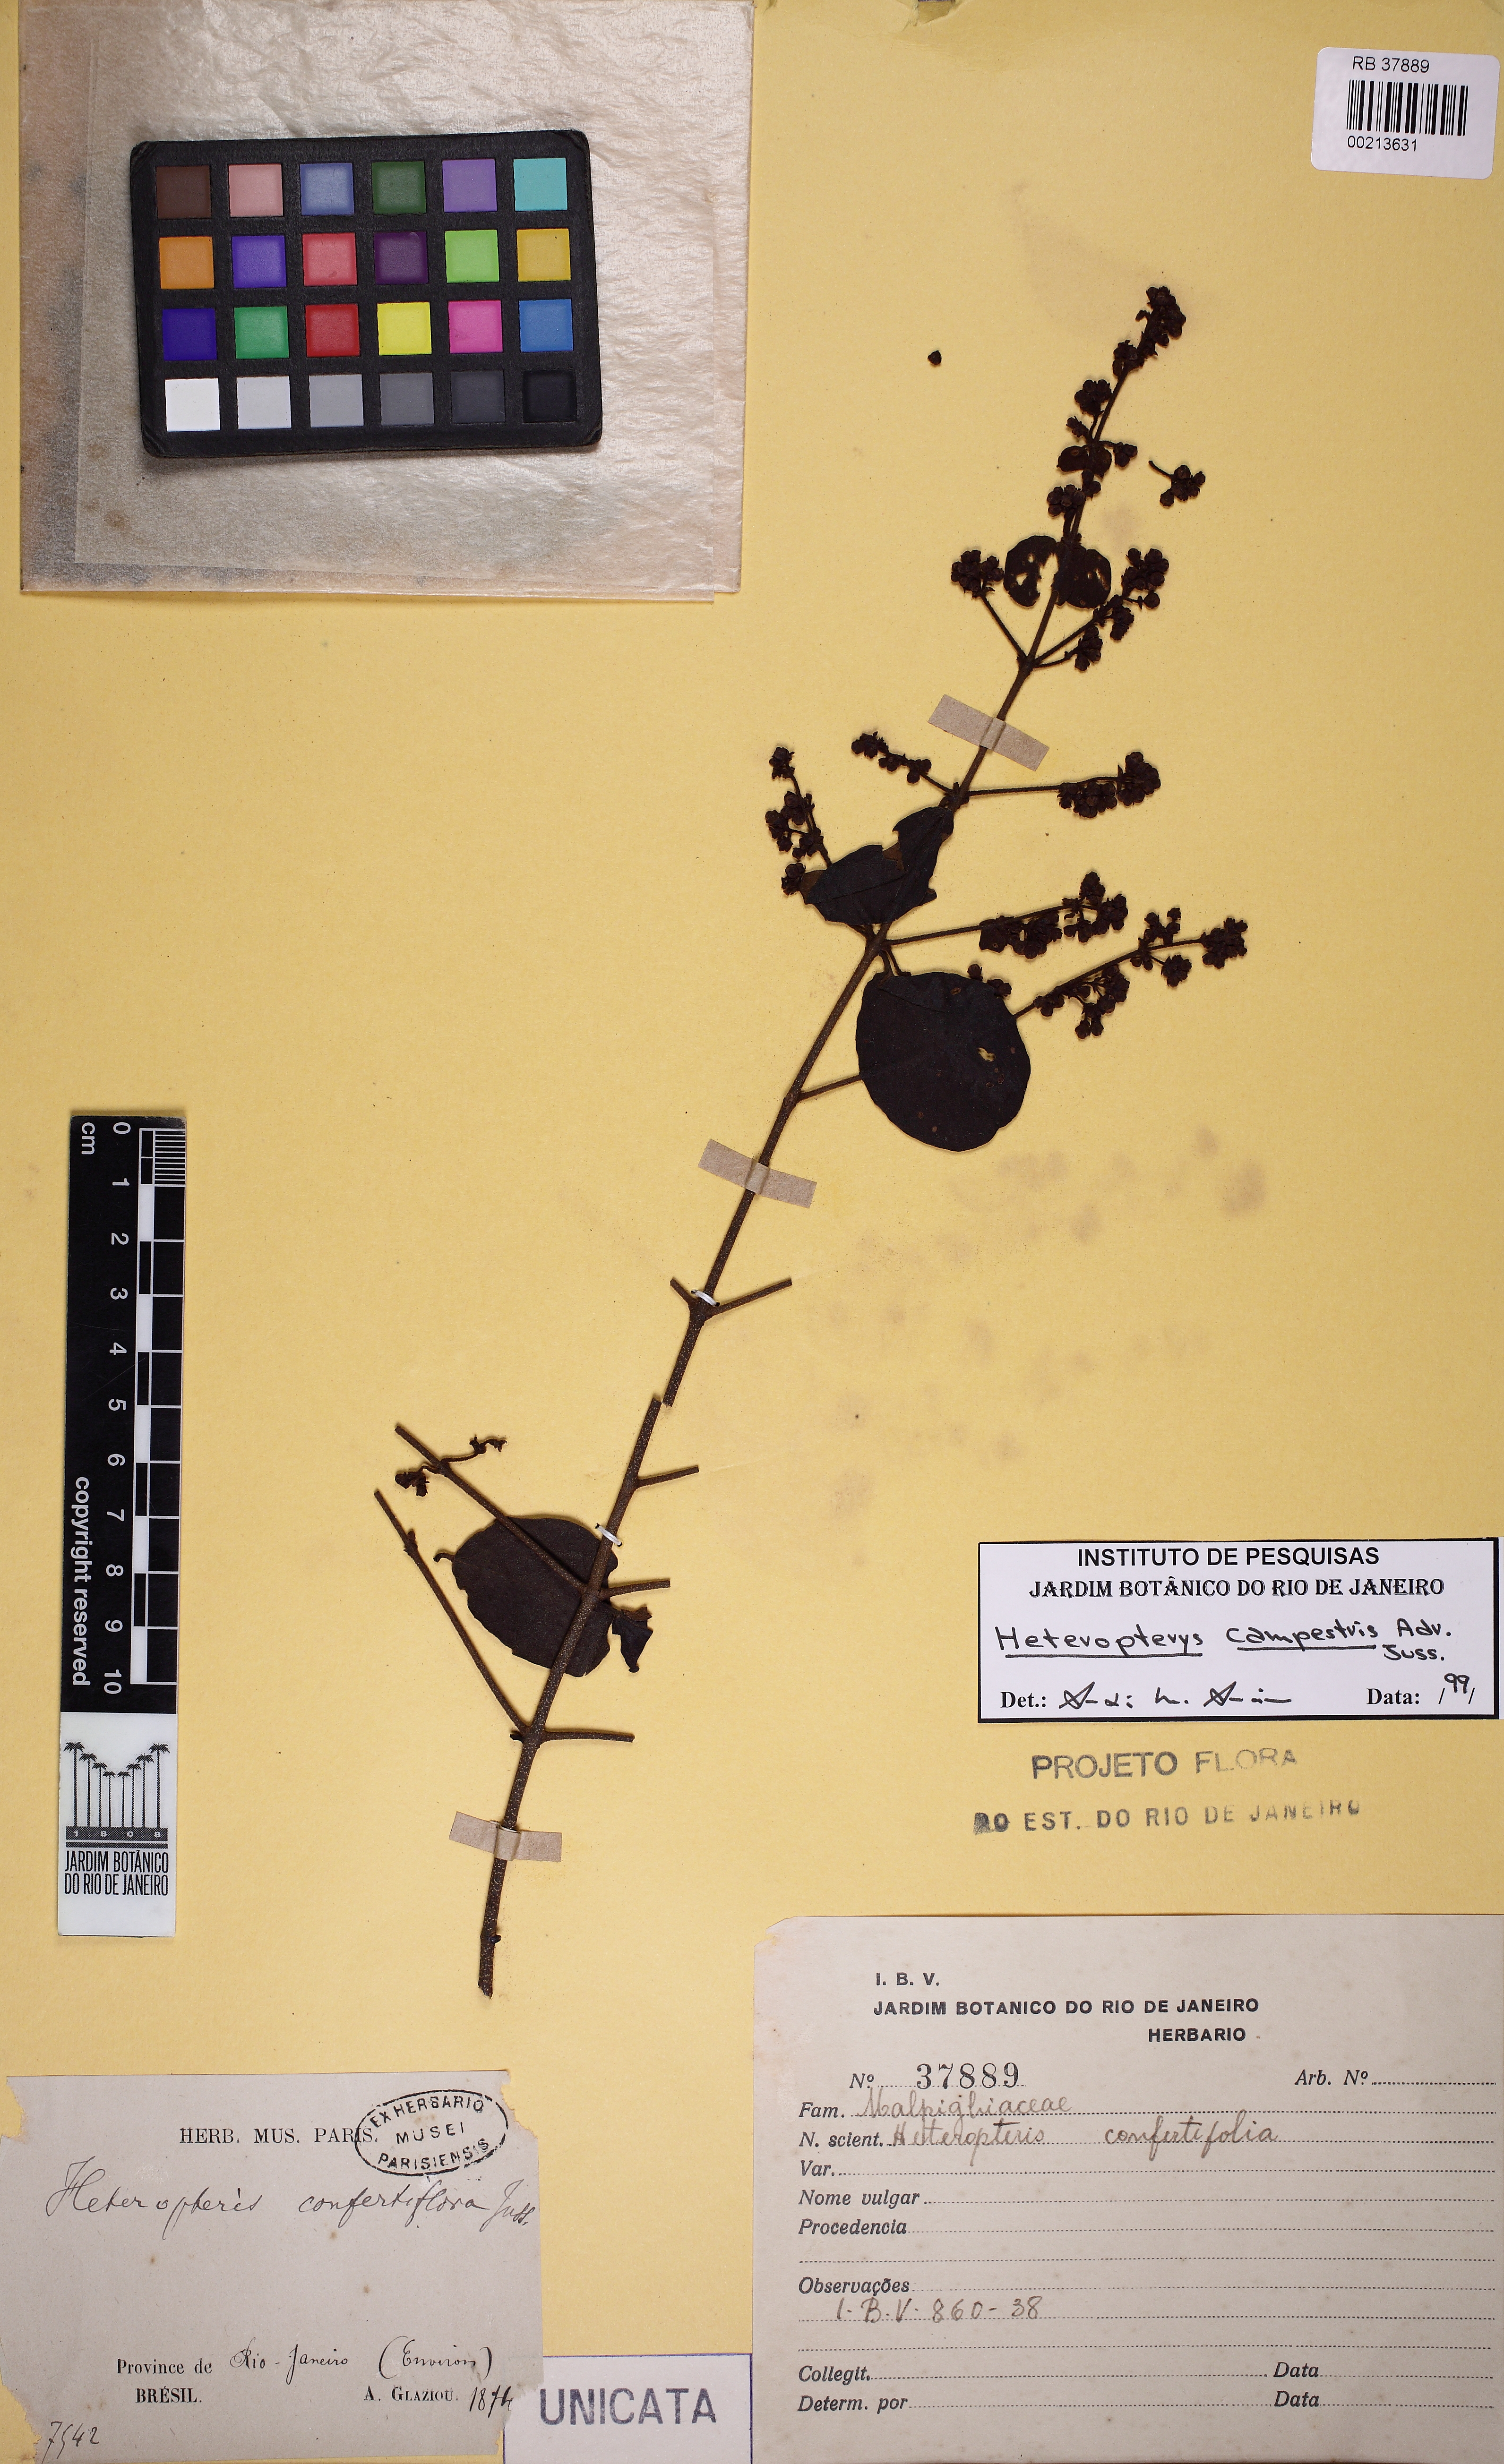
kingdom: Plantae
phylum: Tracheophyta
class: Magnoliopsida
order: Malpighiales
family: Malpighiaceae
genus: Heteropterys
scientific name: Heteropterys campestris
